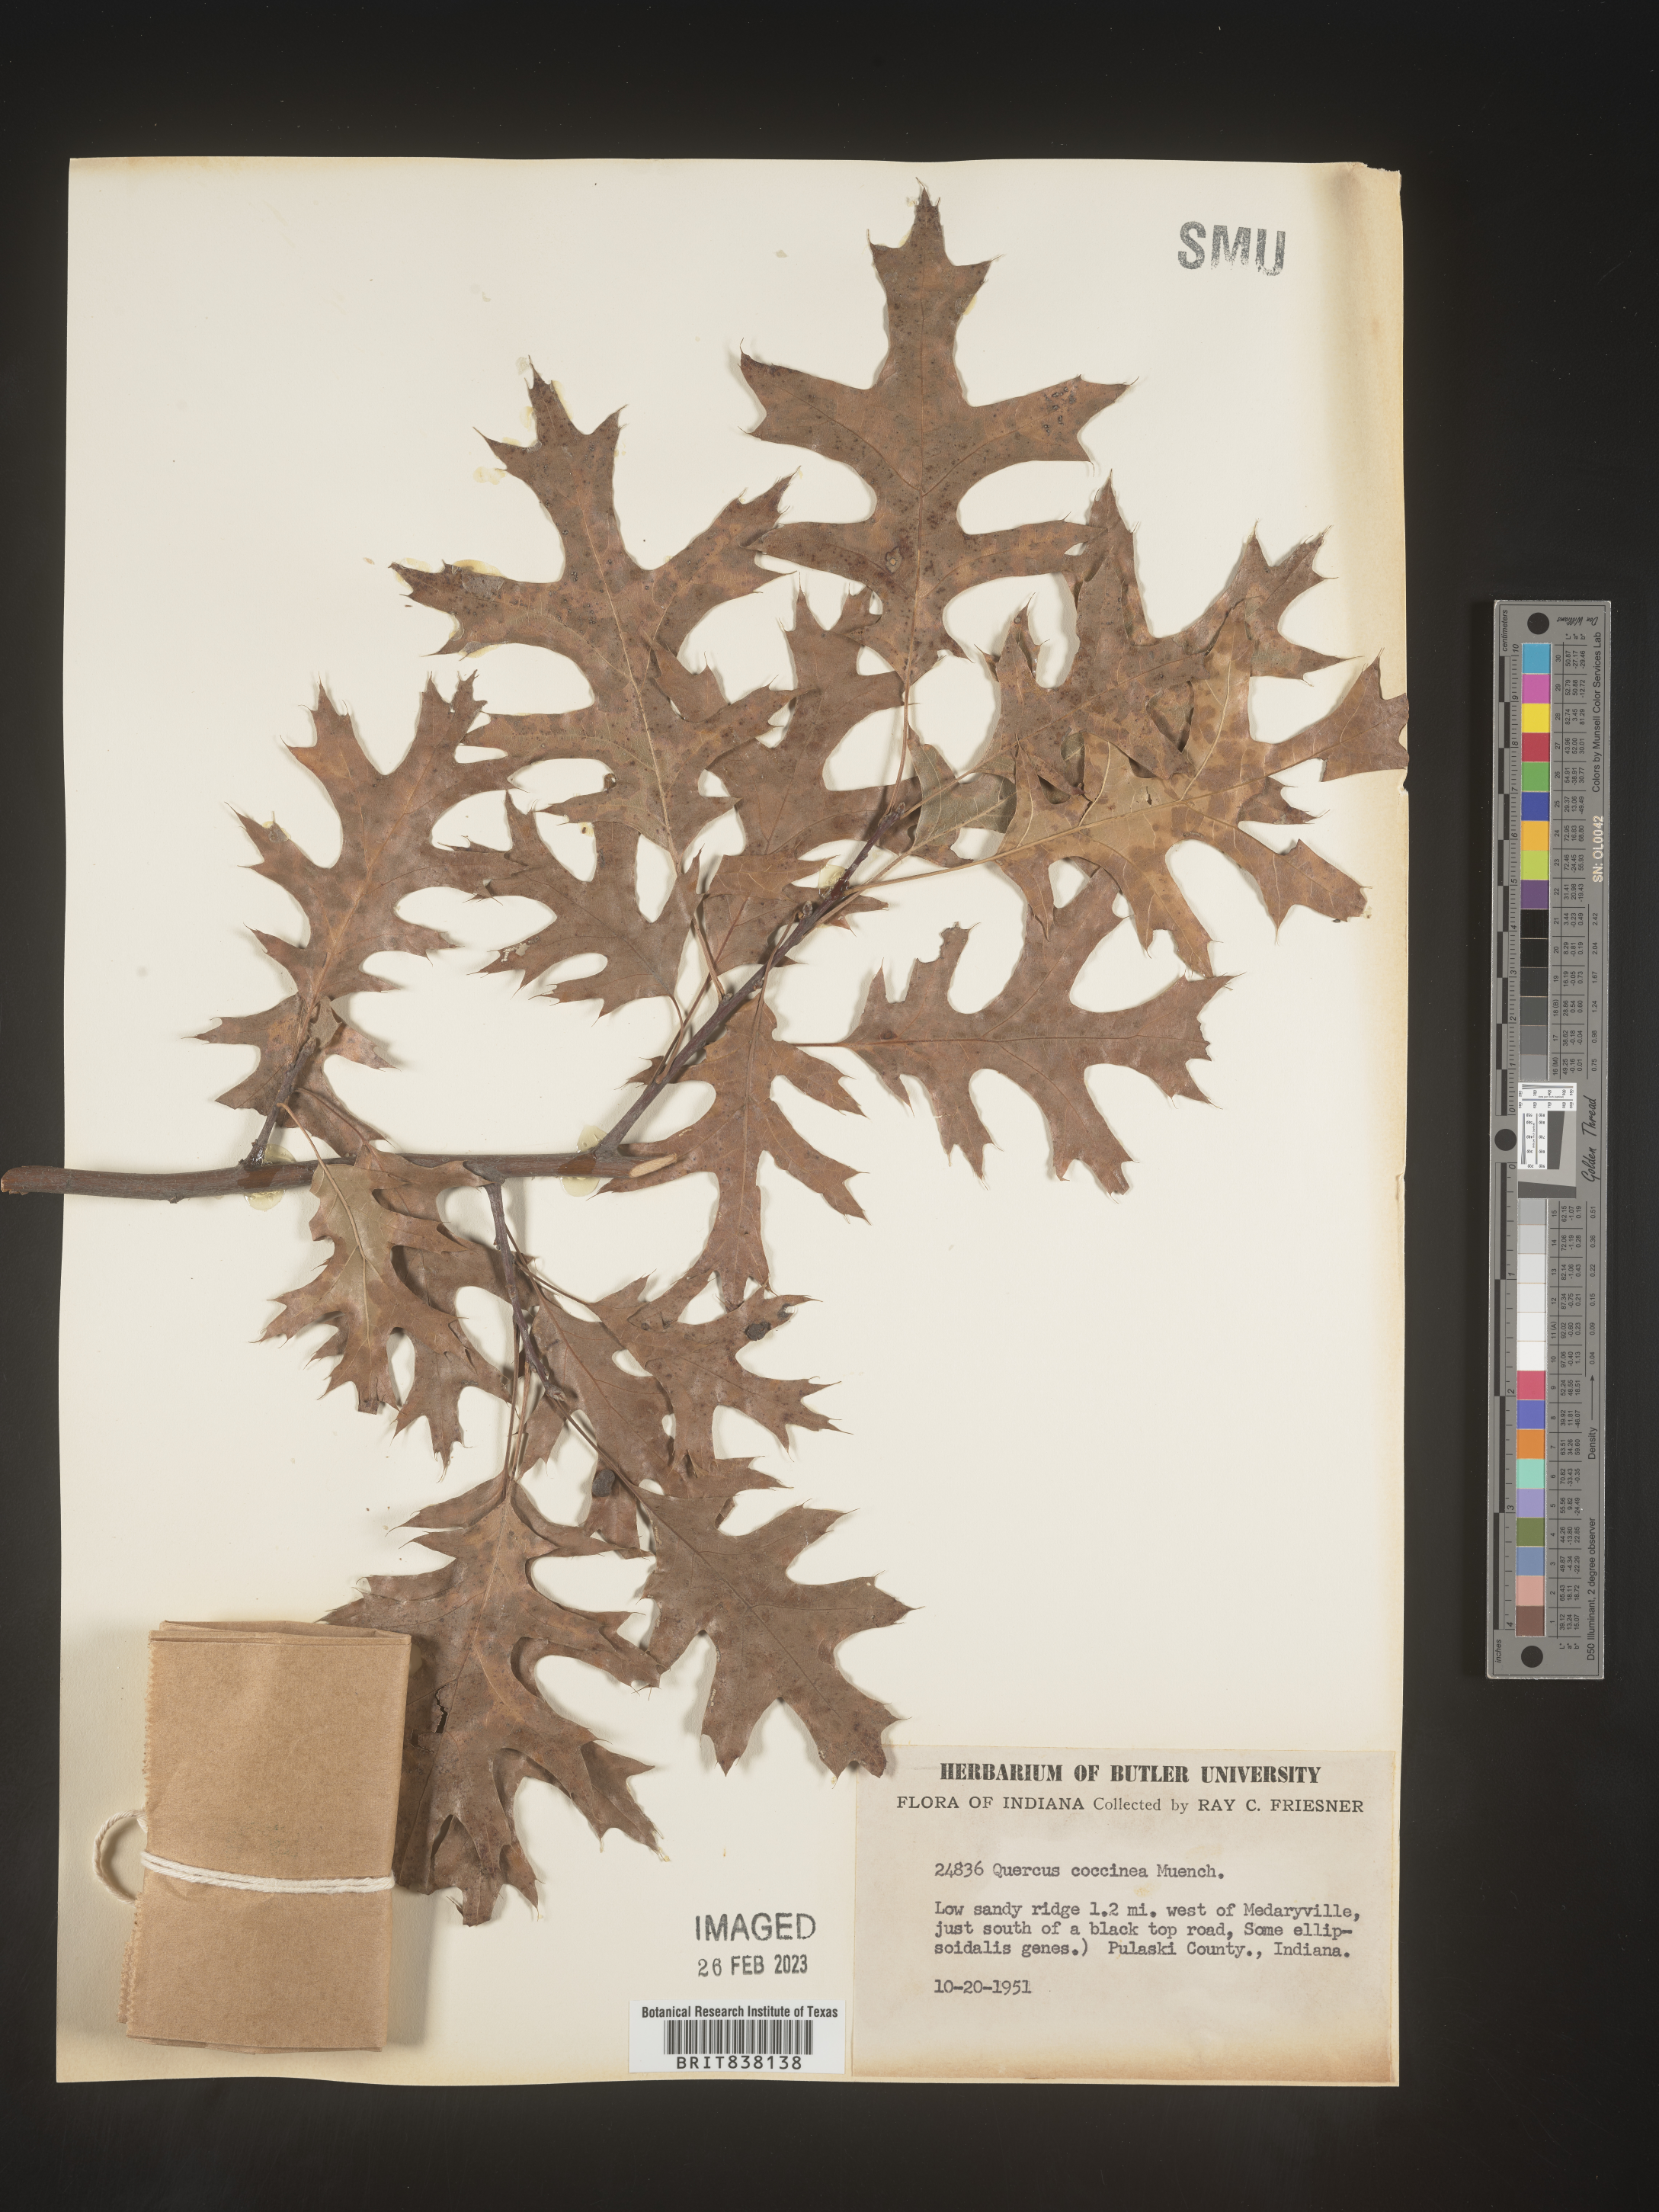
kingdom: Plantae
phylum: Tracheophyta
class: Magnoliopsida
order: Fagales
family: Fagaceae
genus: Quercus
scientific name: Quercus coccinea
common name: Scarlet oak
